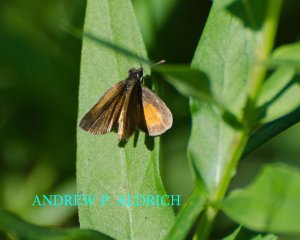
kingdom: Animalia
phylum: Arthropoda
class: Insecta
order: Lepidoptera
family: Hesperiidae
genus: Ancyloxypha
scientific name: Ancyloxypha numitor
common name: Least Skipper
